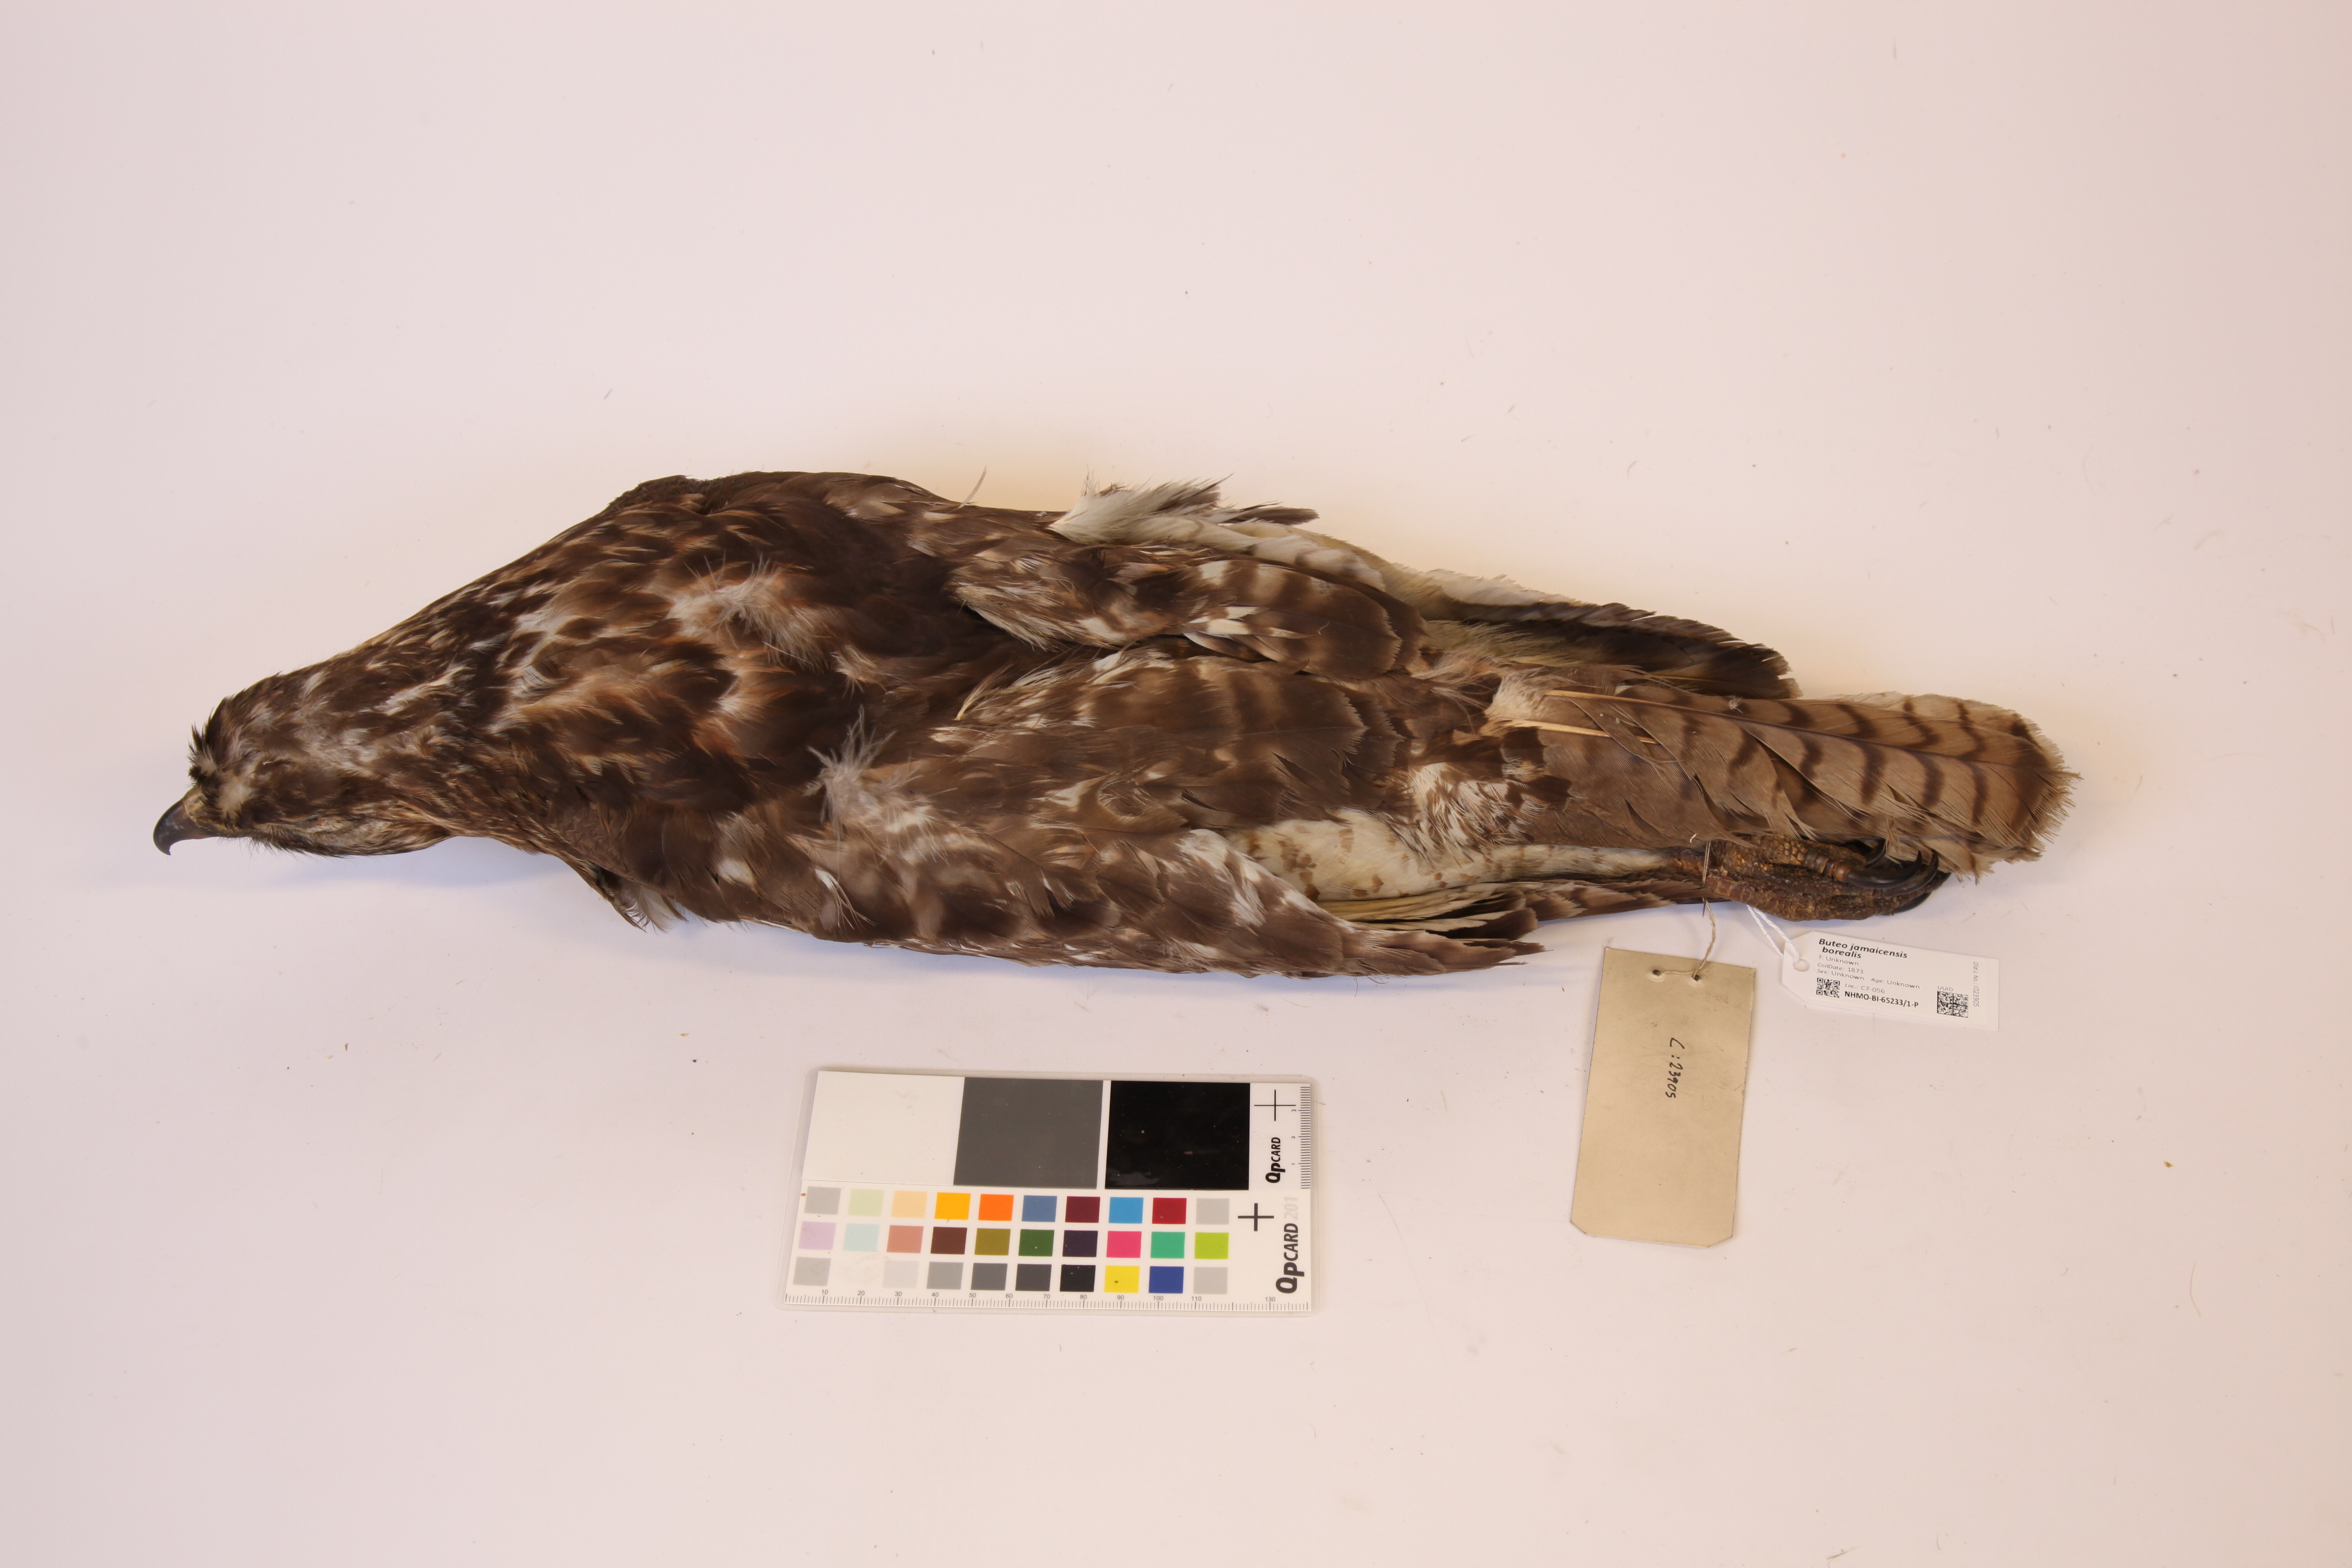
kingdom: Animalia
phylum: Chordata
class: Aves
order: Accipitriformes
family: Accipitridae
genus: Buteo
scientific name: Buteo jamaicensis
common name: Red-tailed hawk
